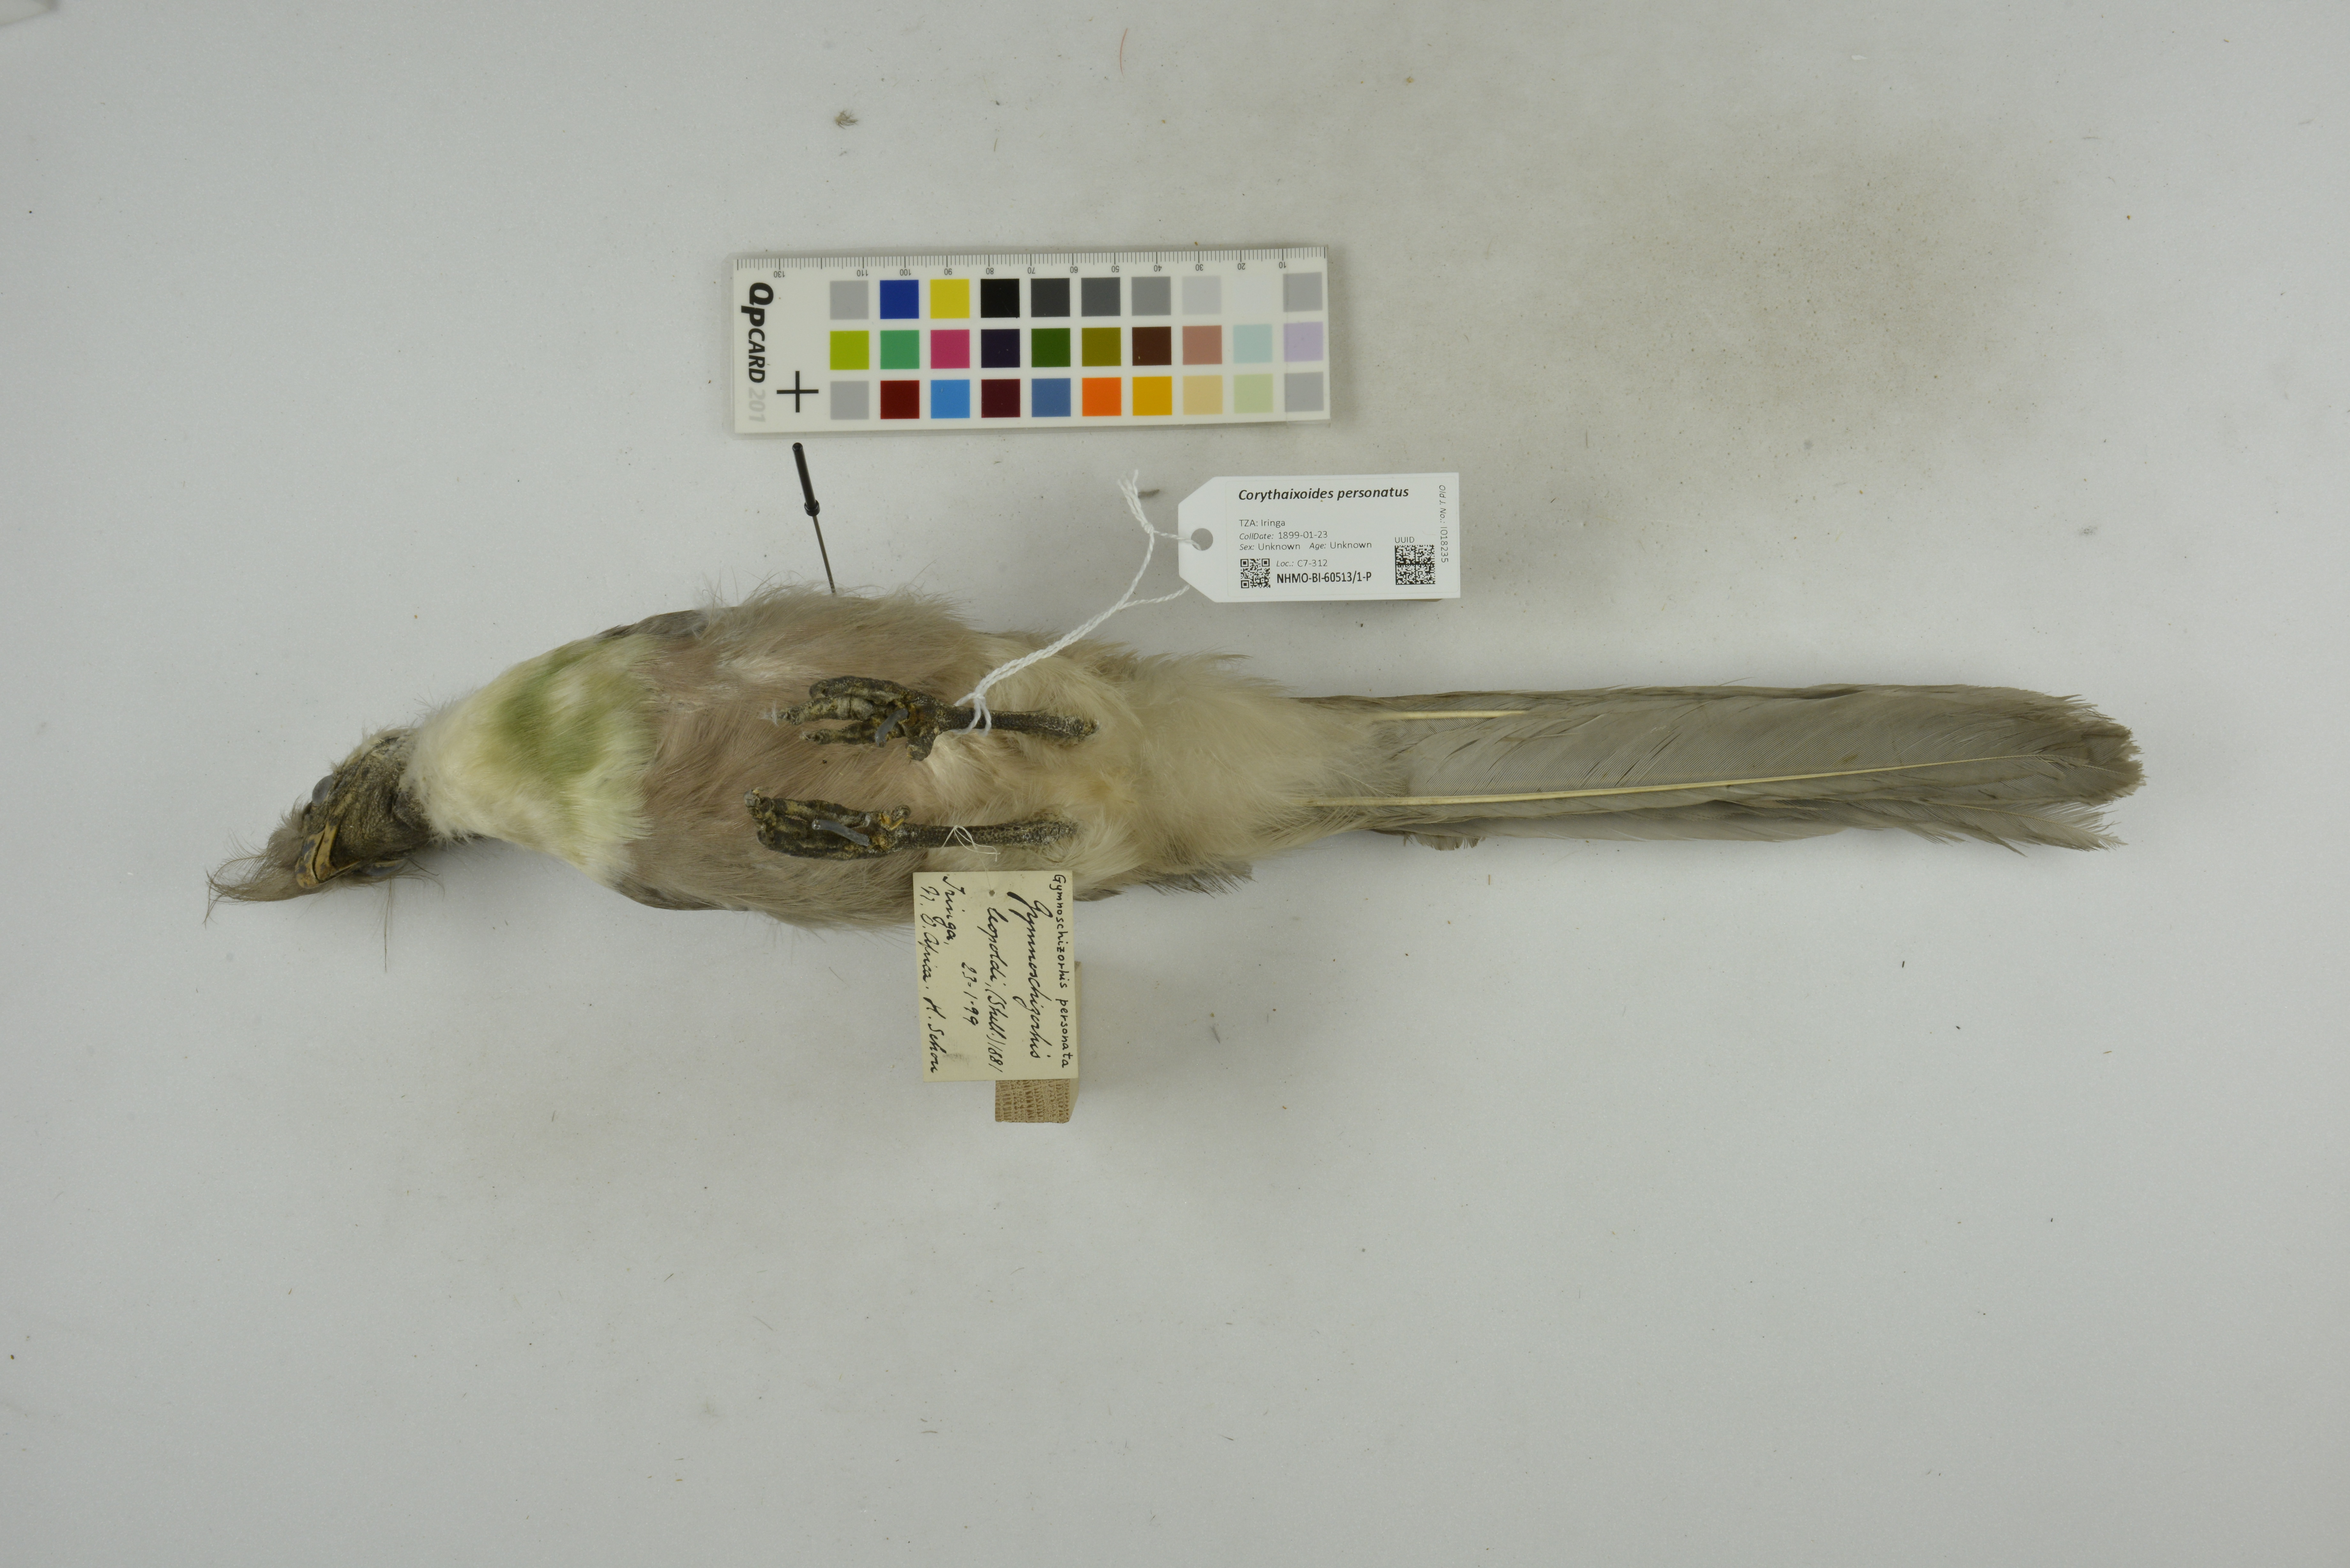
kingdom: Animalia
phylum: Chordata
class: Aves
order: Musophagiformes
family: Musophagidae
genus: Corythaixoides
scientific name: Corythaixoides personatus
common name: Bare-faced go-away-bird
